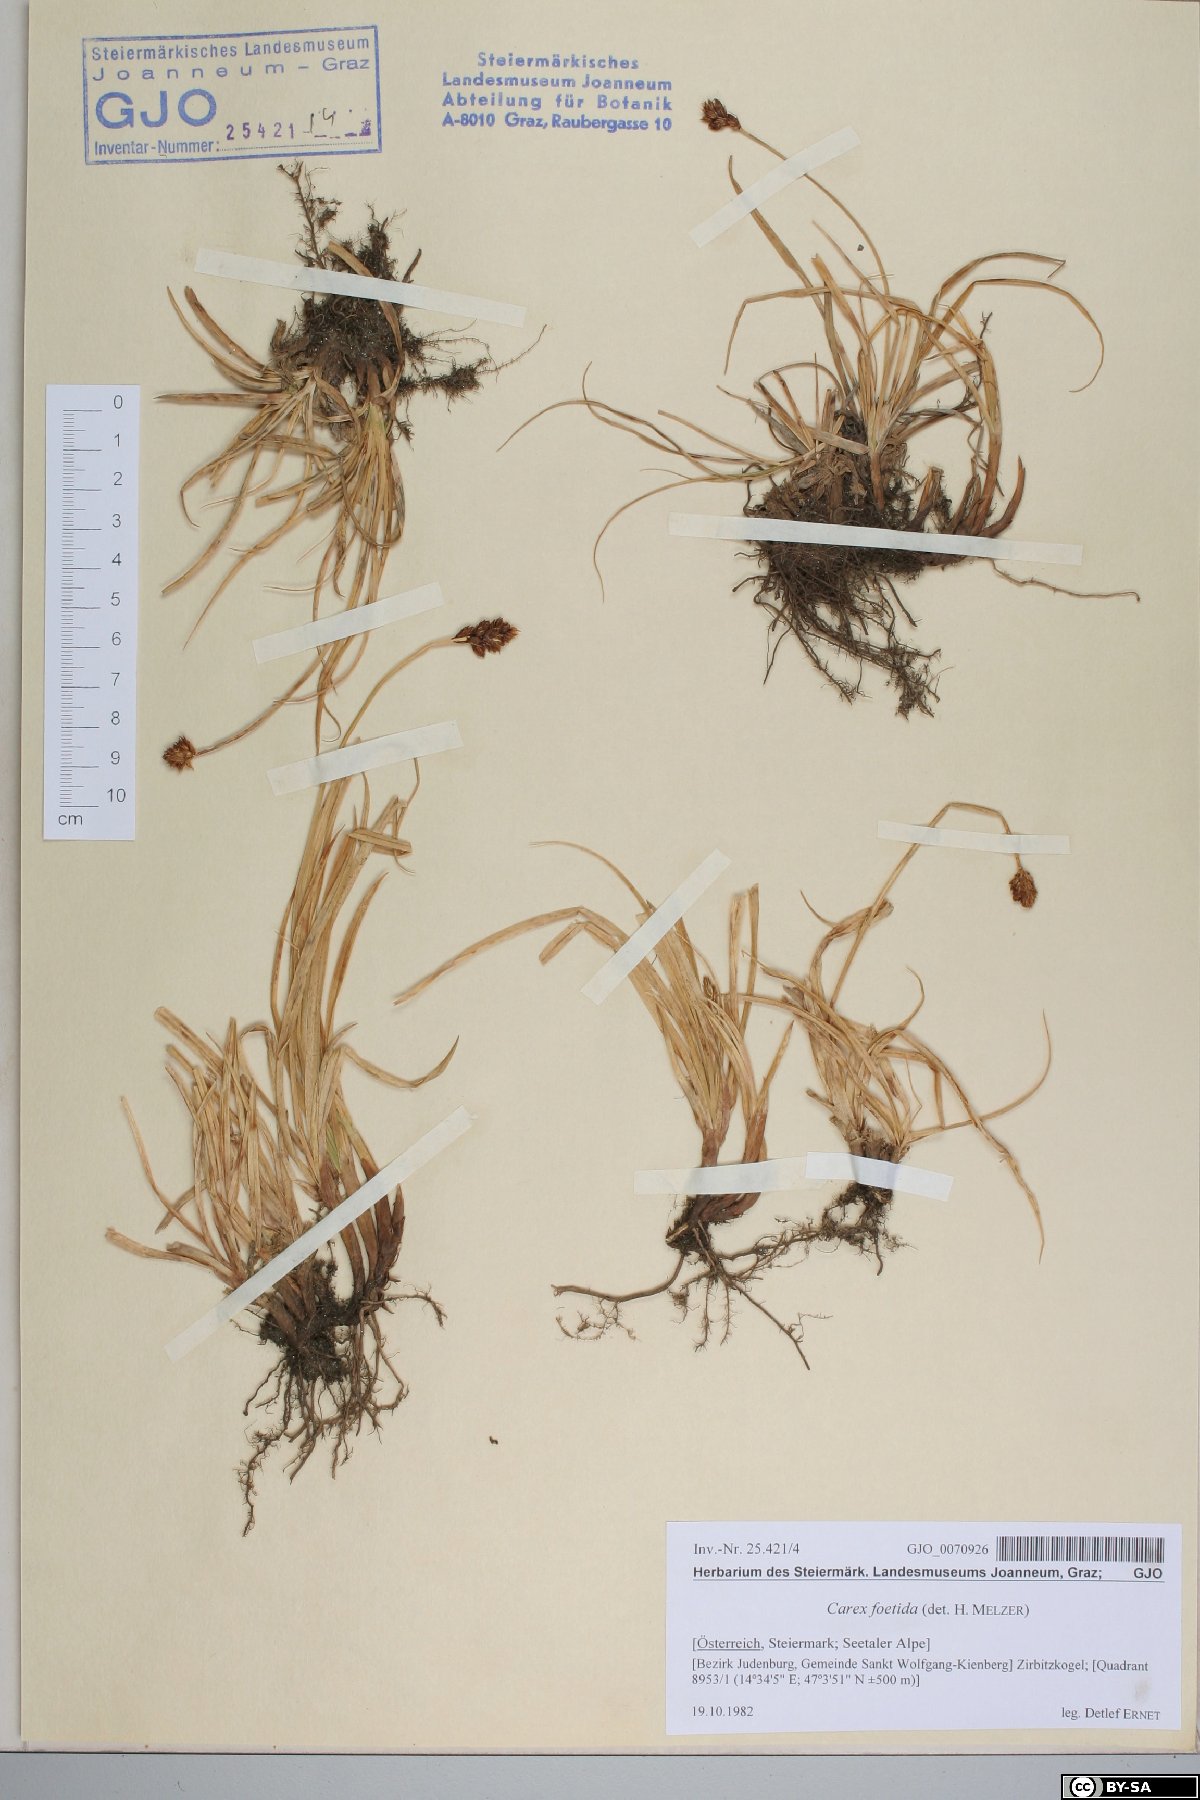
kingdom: Plantae
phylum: Tracheophyta
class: Liliopsida
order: Poales
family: Cyperaceae
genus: Carex
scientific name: Carex foetida
